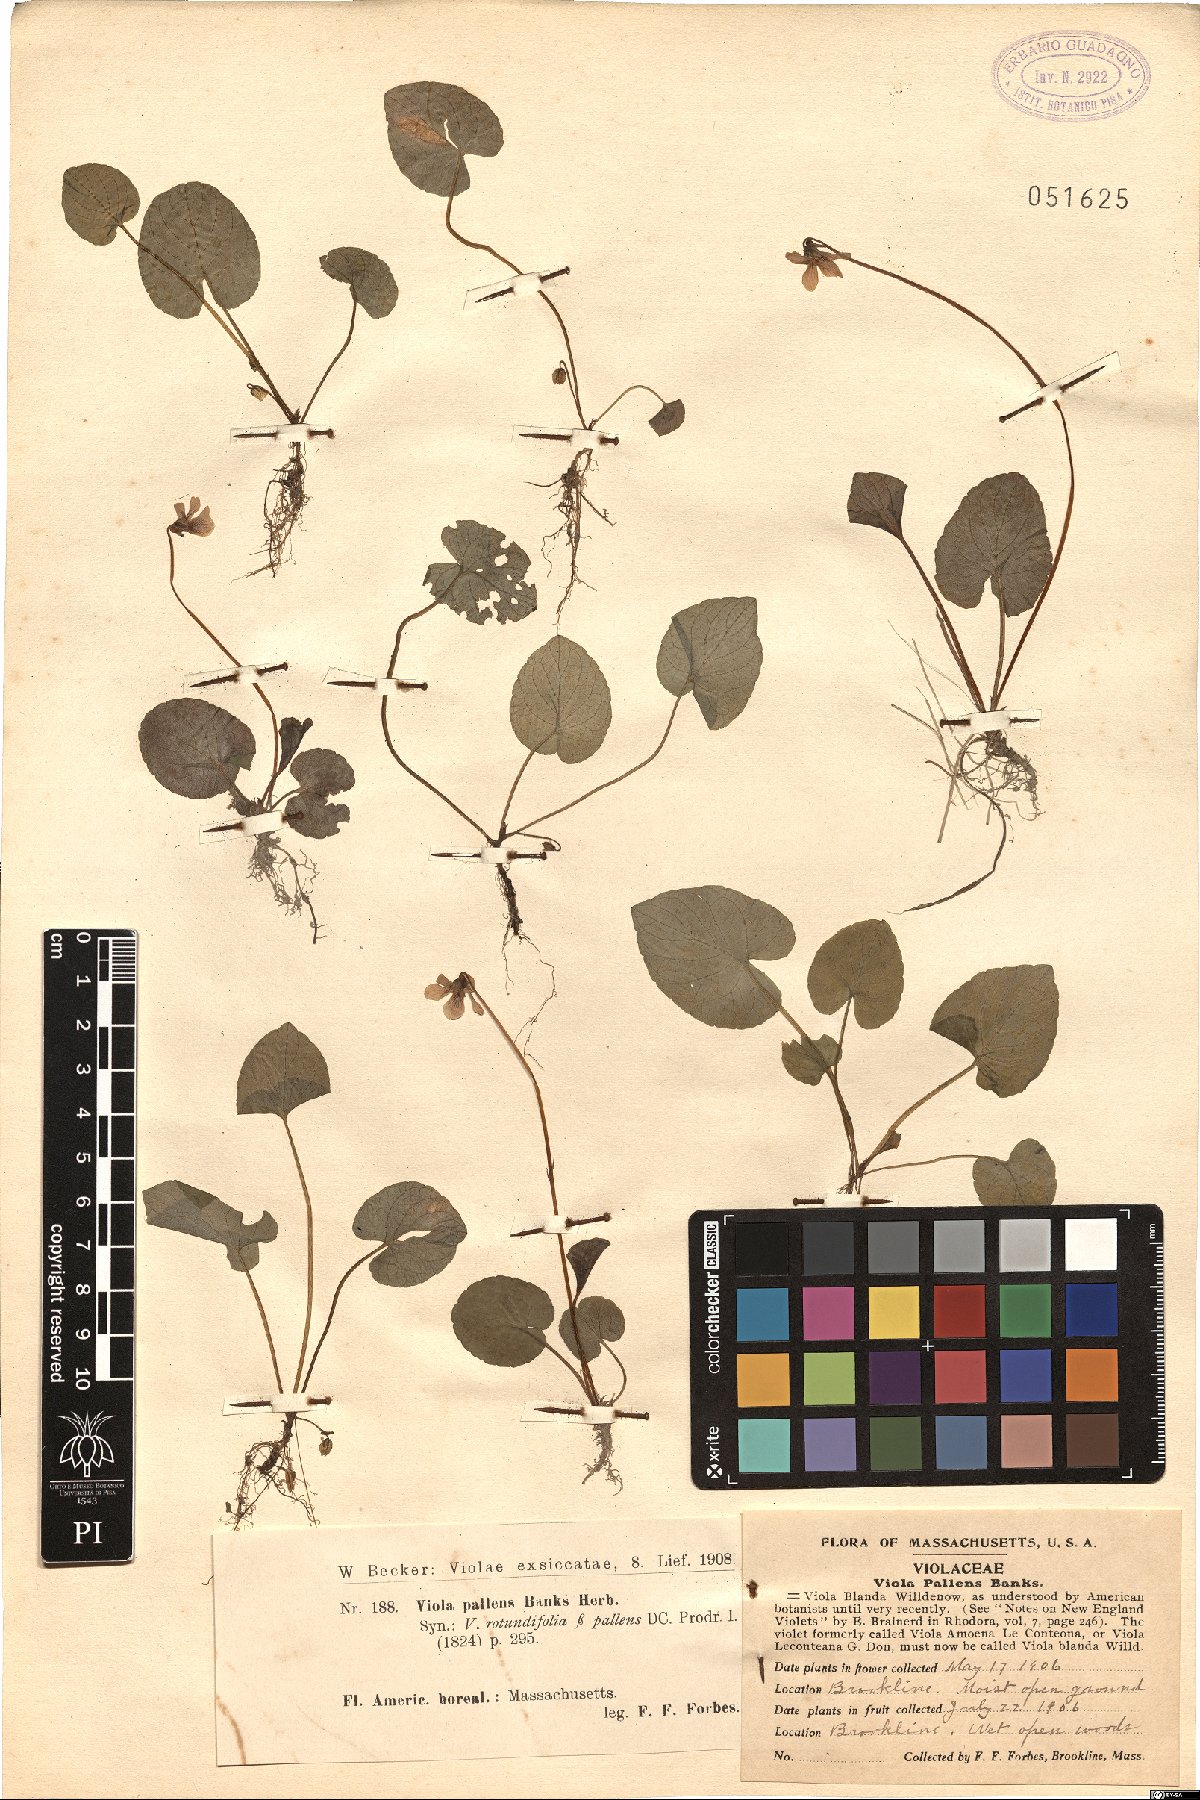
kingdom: Plantae
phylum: Tracheophyta
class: Magnoliopsida
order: Malpighiales
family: Violaceae
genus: Viola
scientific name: Viola palustris
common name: Marsh violet
